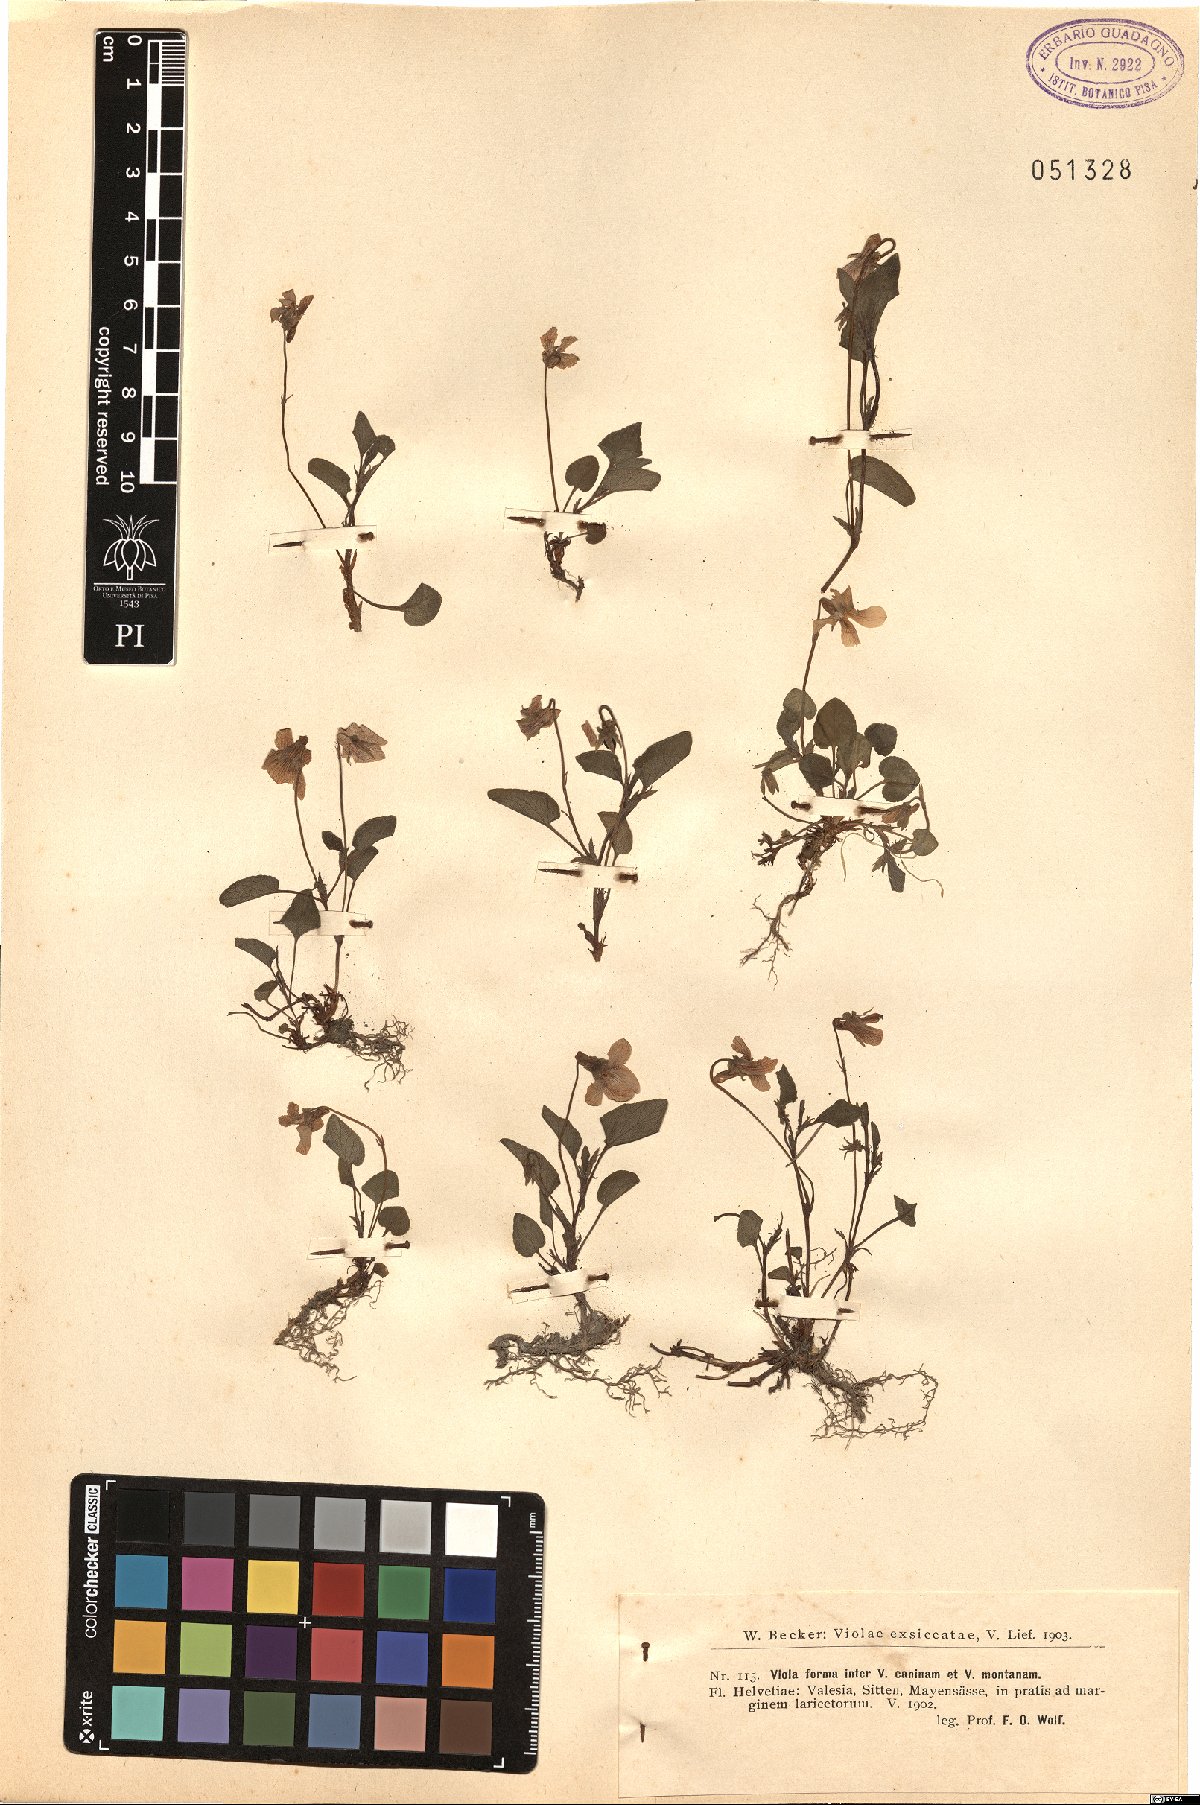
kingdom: Plantae
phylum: Tracheophyta
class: Magnoliopsida
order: Malpighiales
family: Violaceae
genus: Viola
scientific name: Viola canina
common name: Heath dog-violet
